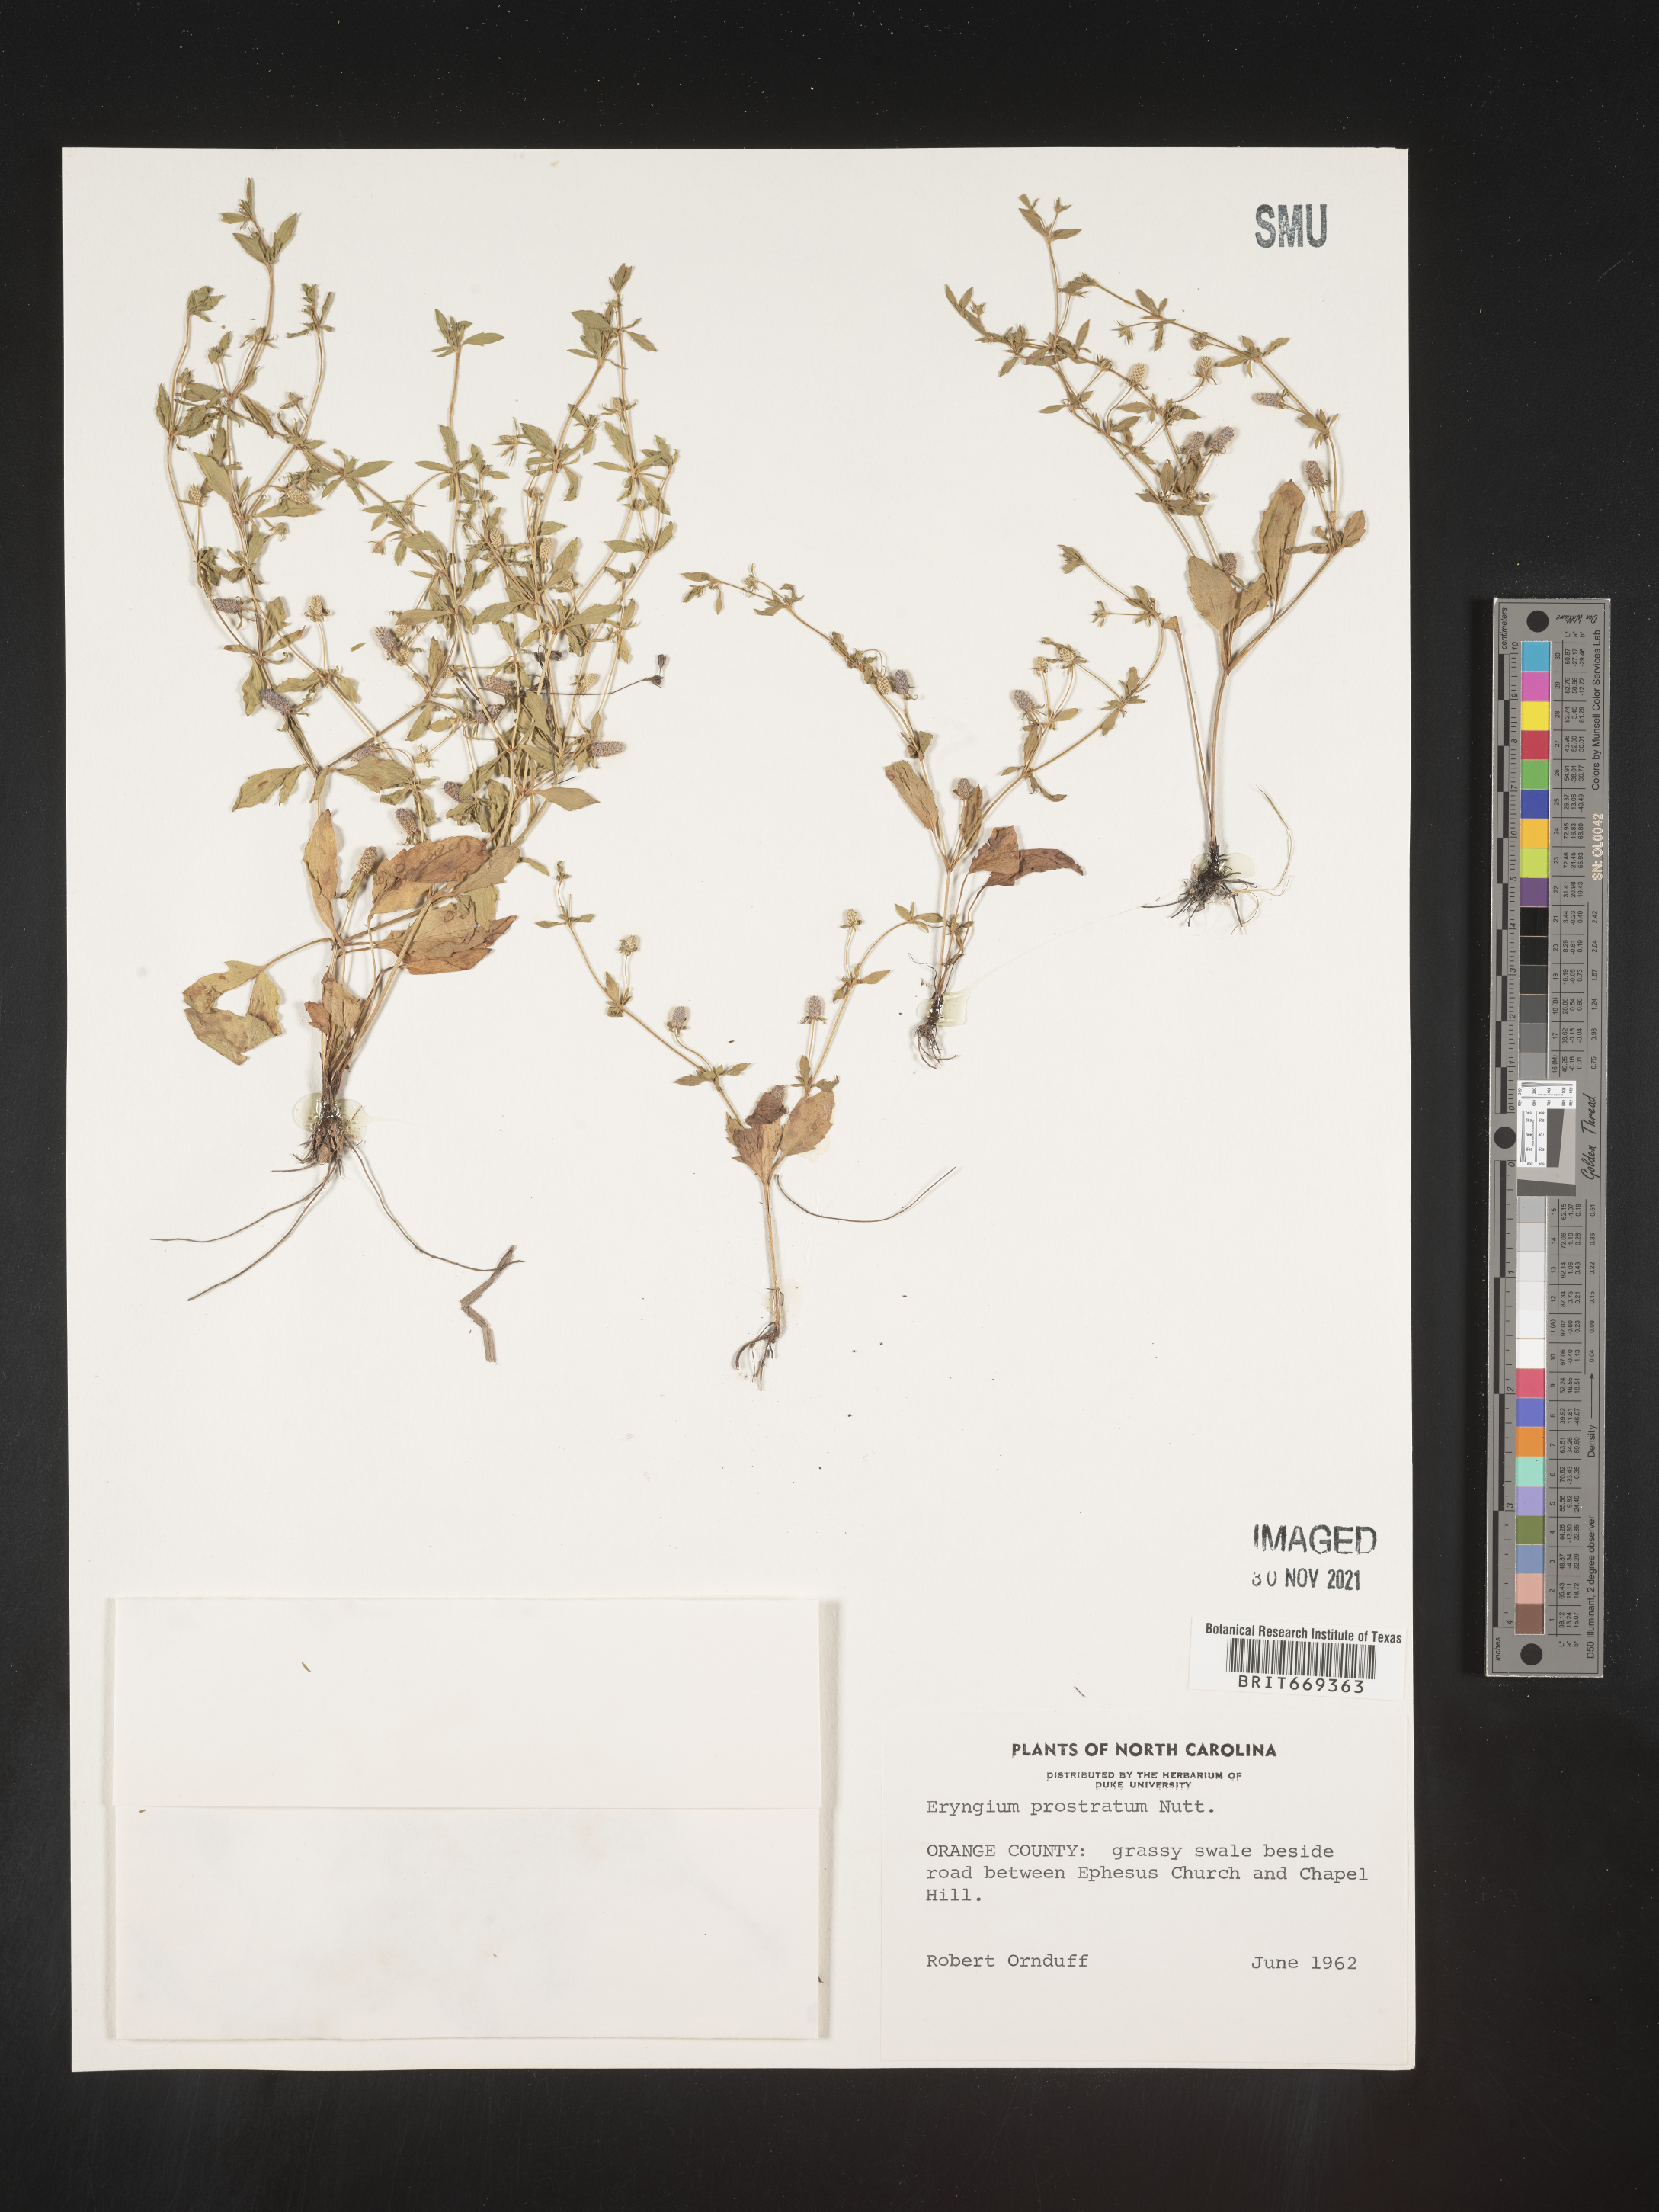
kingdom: Plantae
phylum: Tracheophyta
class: Magnoliopsida
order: Apiales
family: Apiaceae
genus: Eryngium
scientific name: Eryngium prostratum
